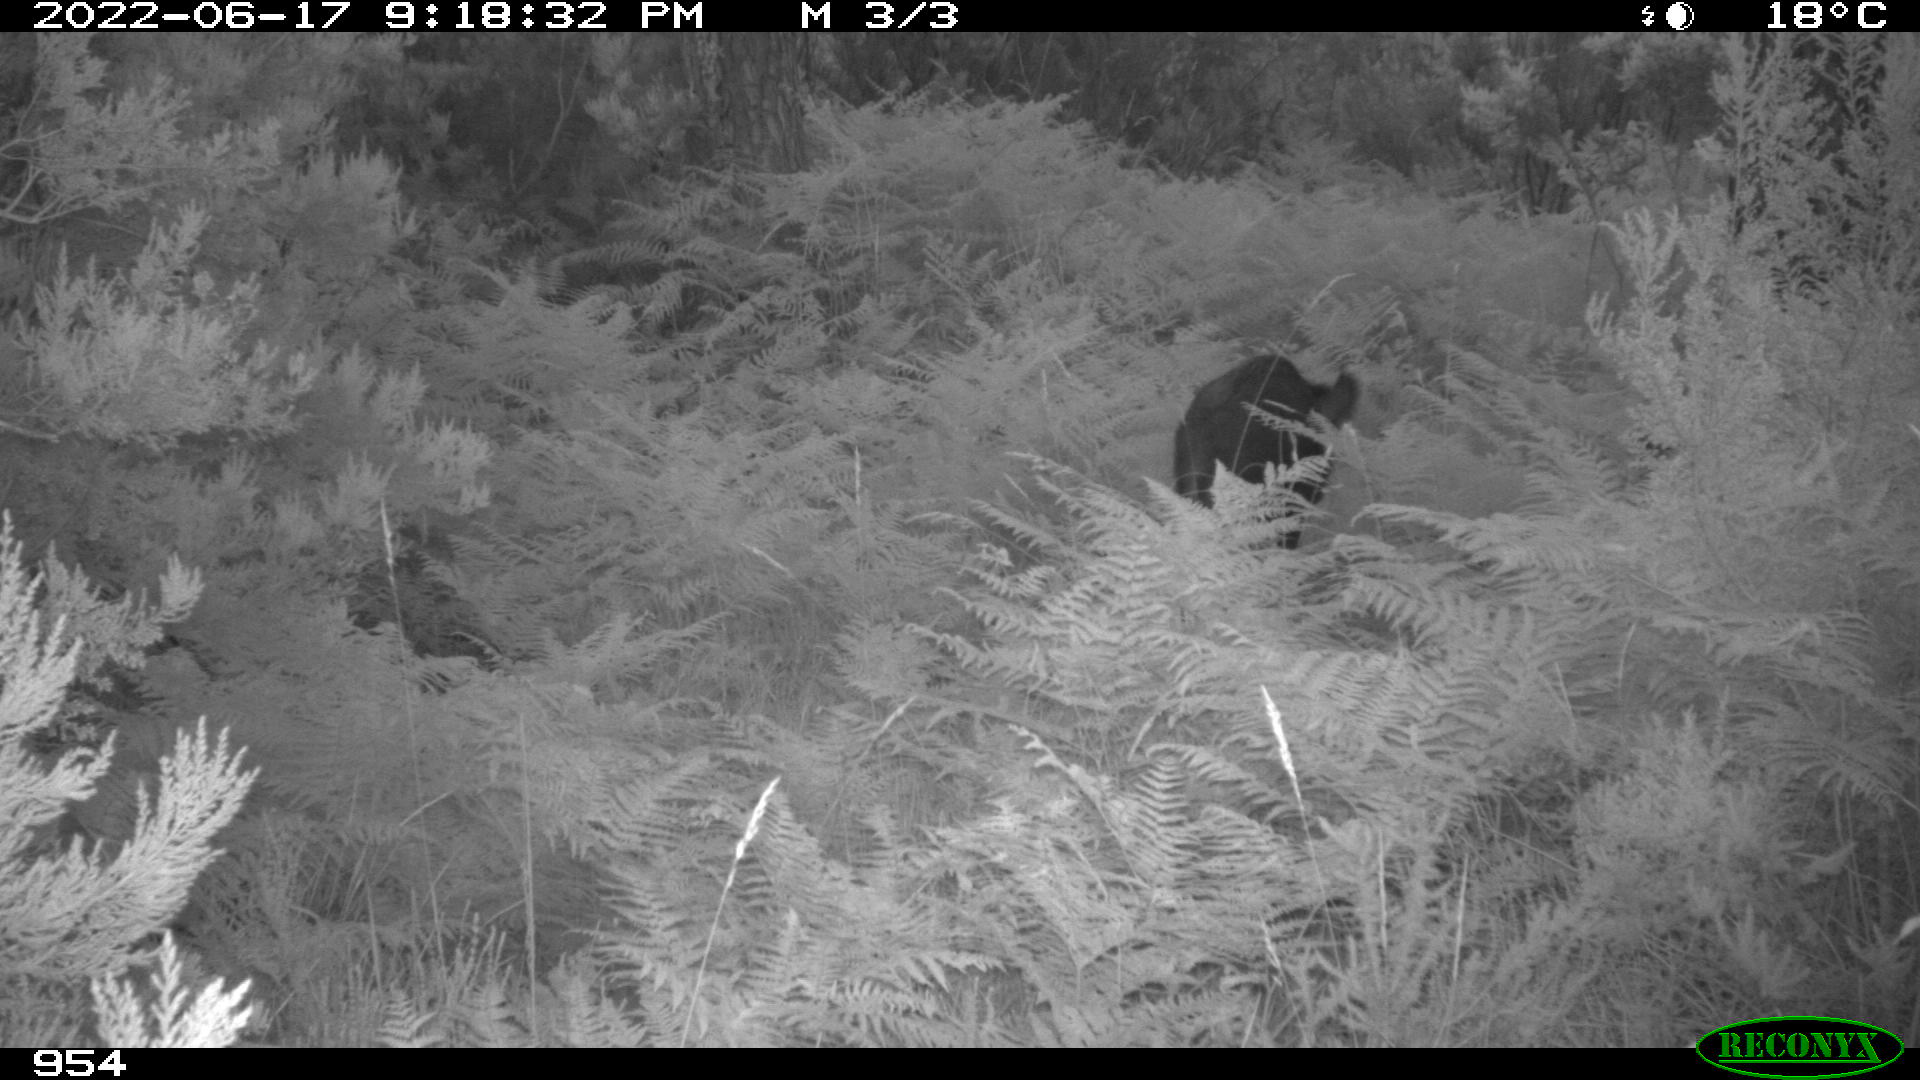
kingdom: Animalia
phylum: Chordata
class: Mammalia
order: Artiodactyla
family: Suidae
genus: Sus
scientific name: Sus scrofa
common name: Wild boar
